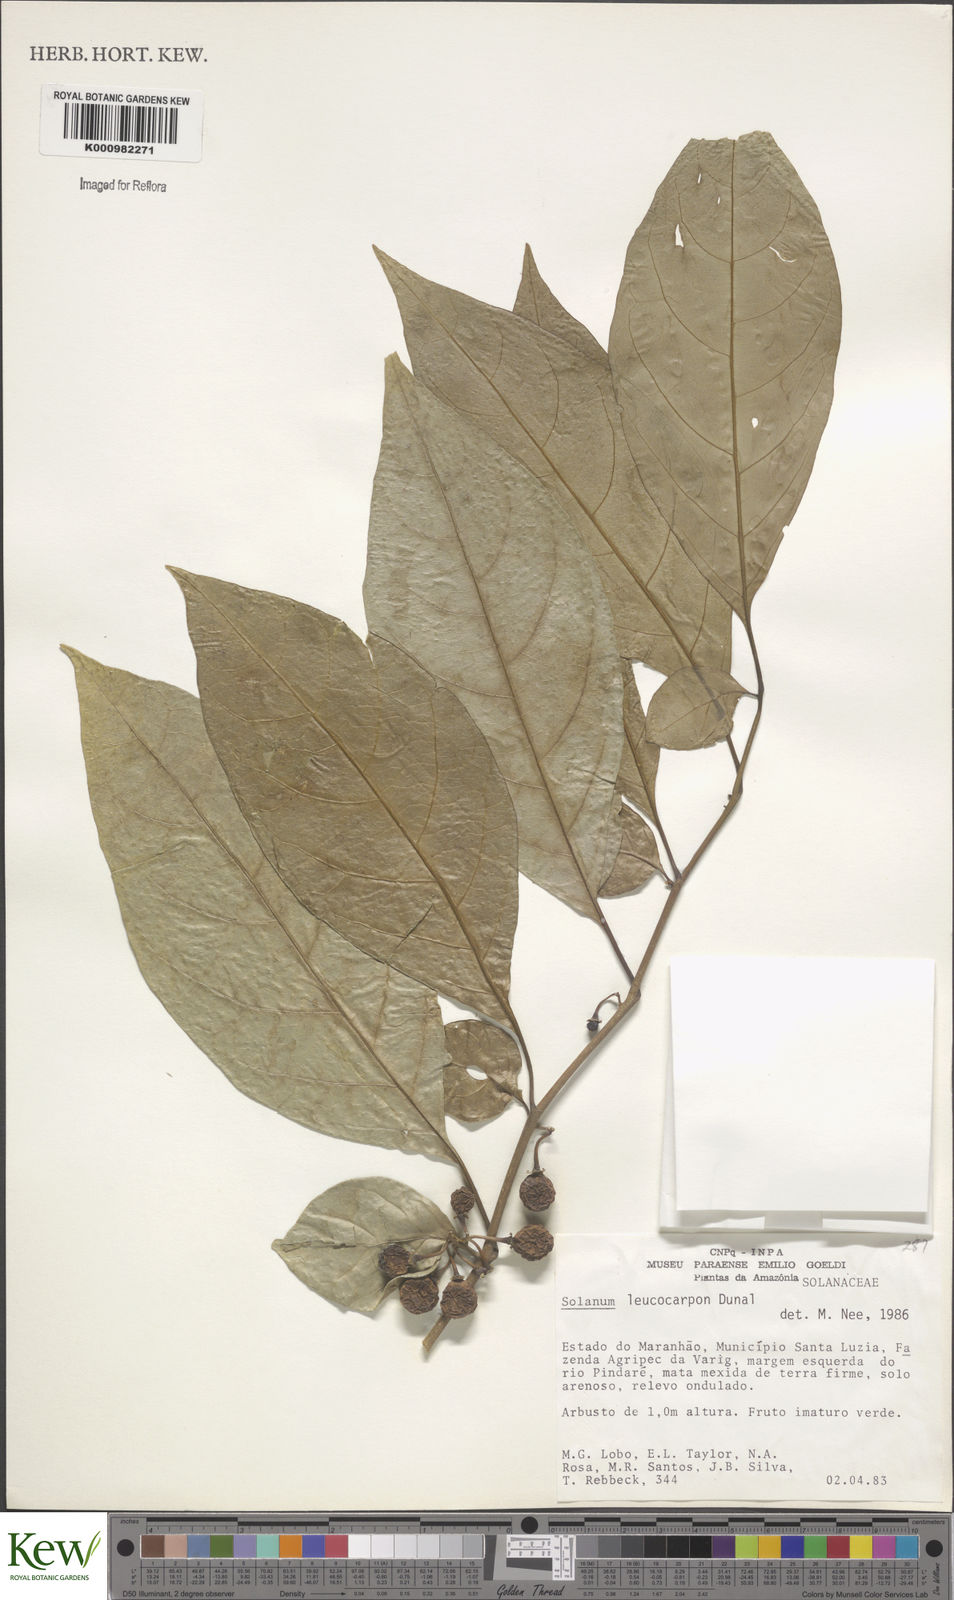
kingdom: Plantae
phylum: Tracheophyta
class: Magnoliopsida
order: Solanales
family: Solanaceae
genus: Solanum
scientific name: Solanum leucocarpon
